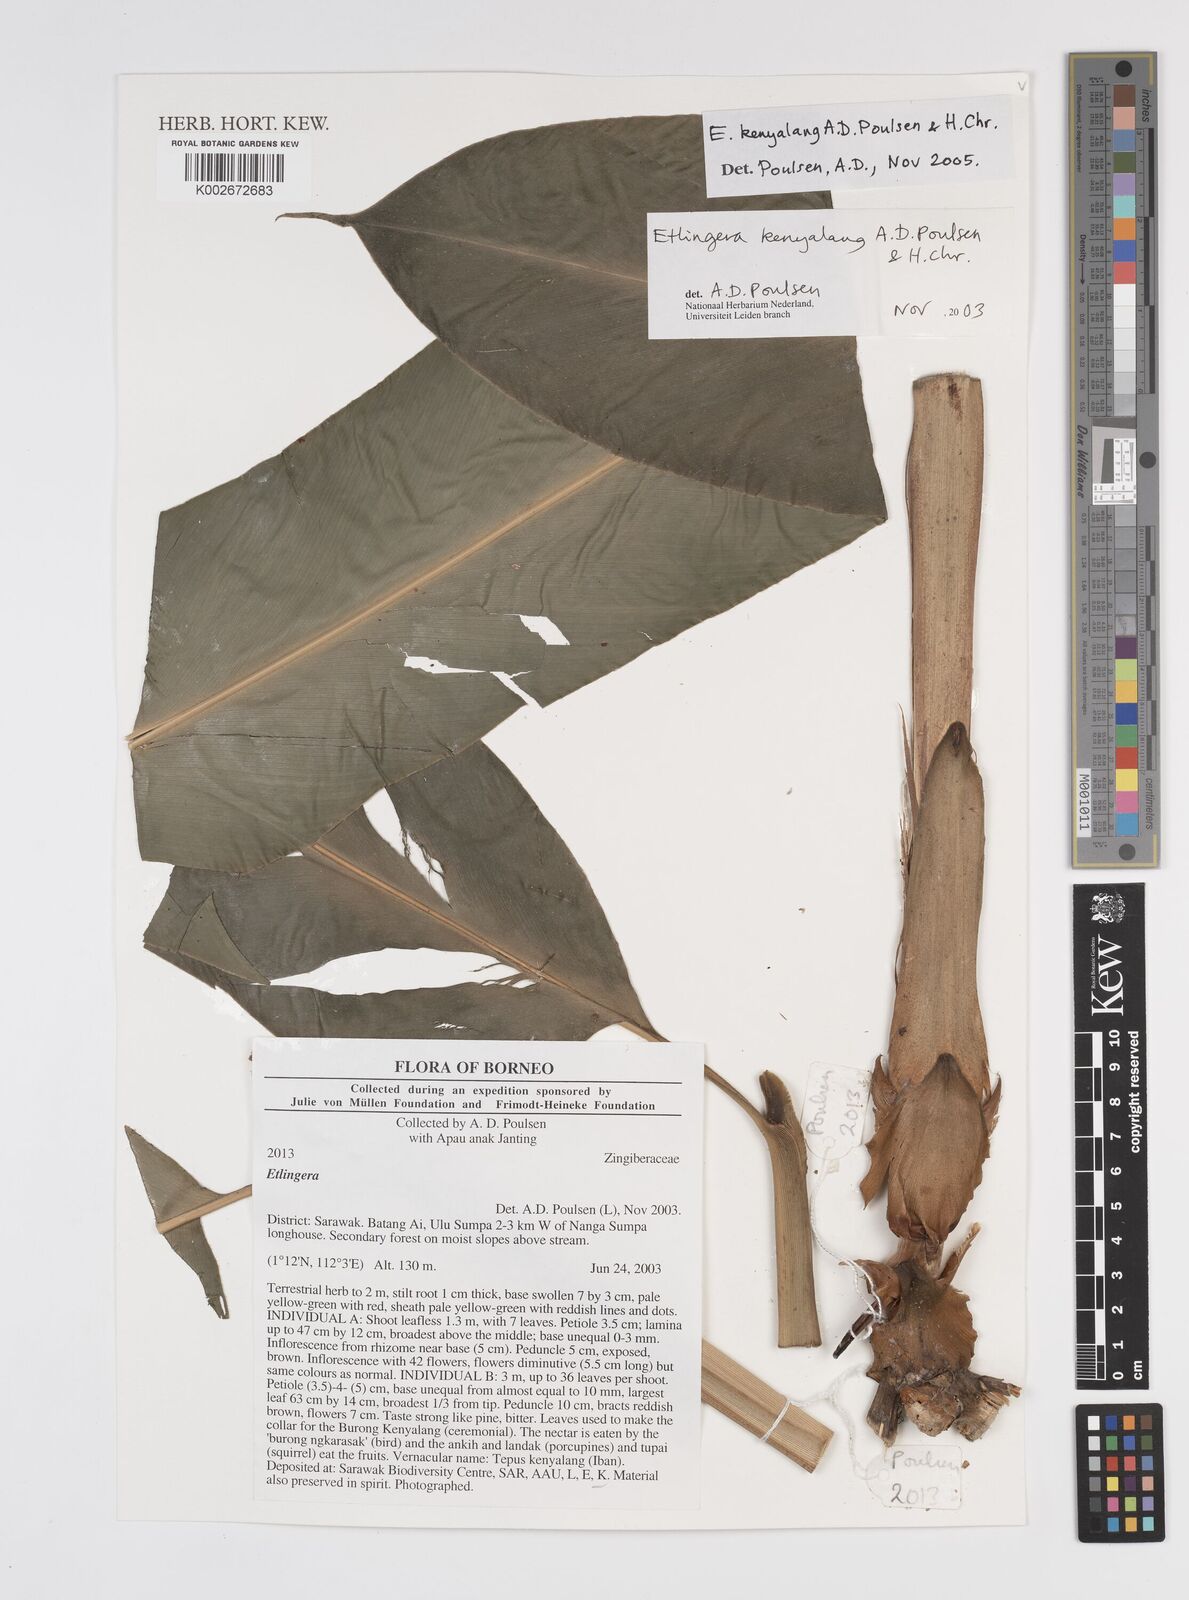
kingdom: Plantae
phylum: Tracheophyta
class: Liliopsida
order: Zingiberales
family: Zingiberaceae
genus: Etlingera
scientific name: Etlingera kenyalang
